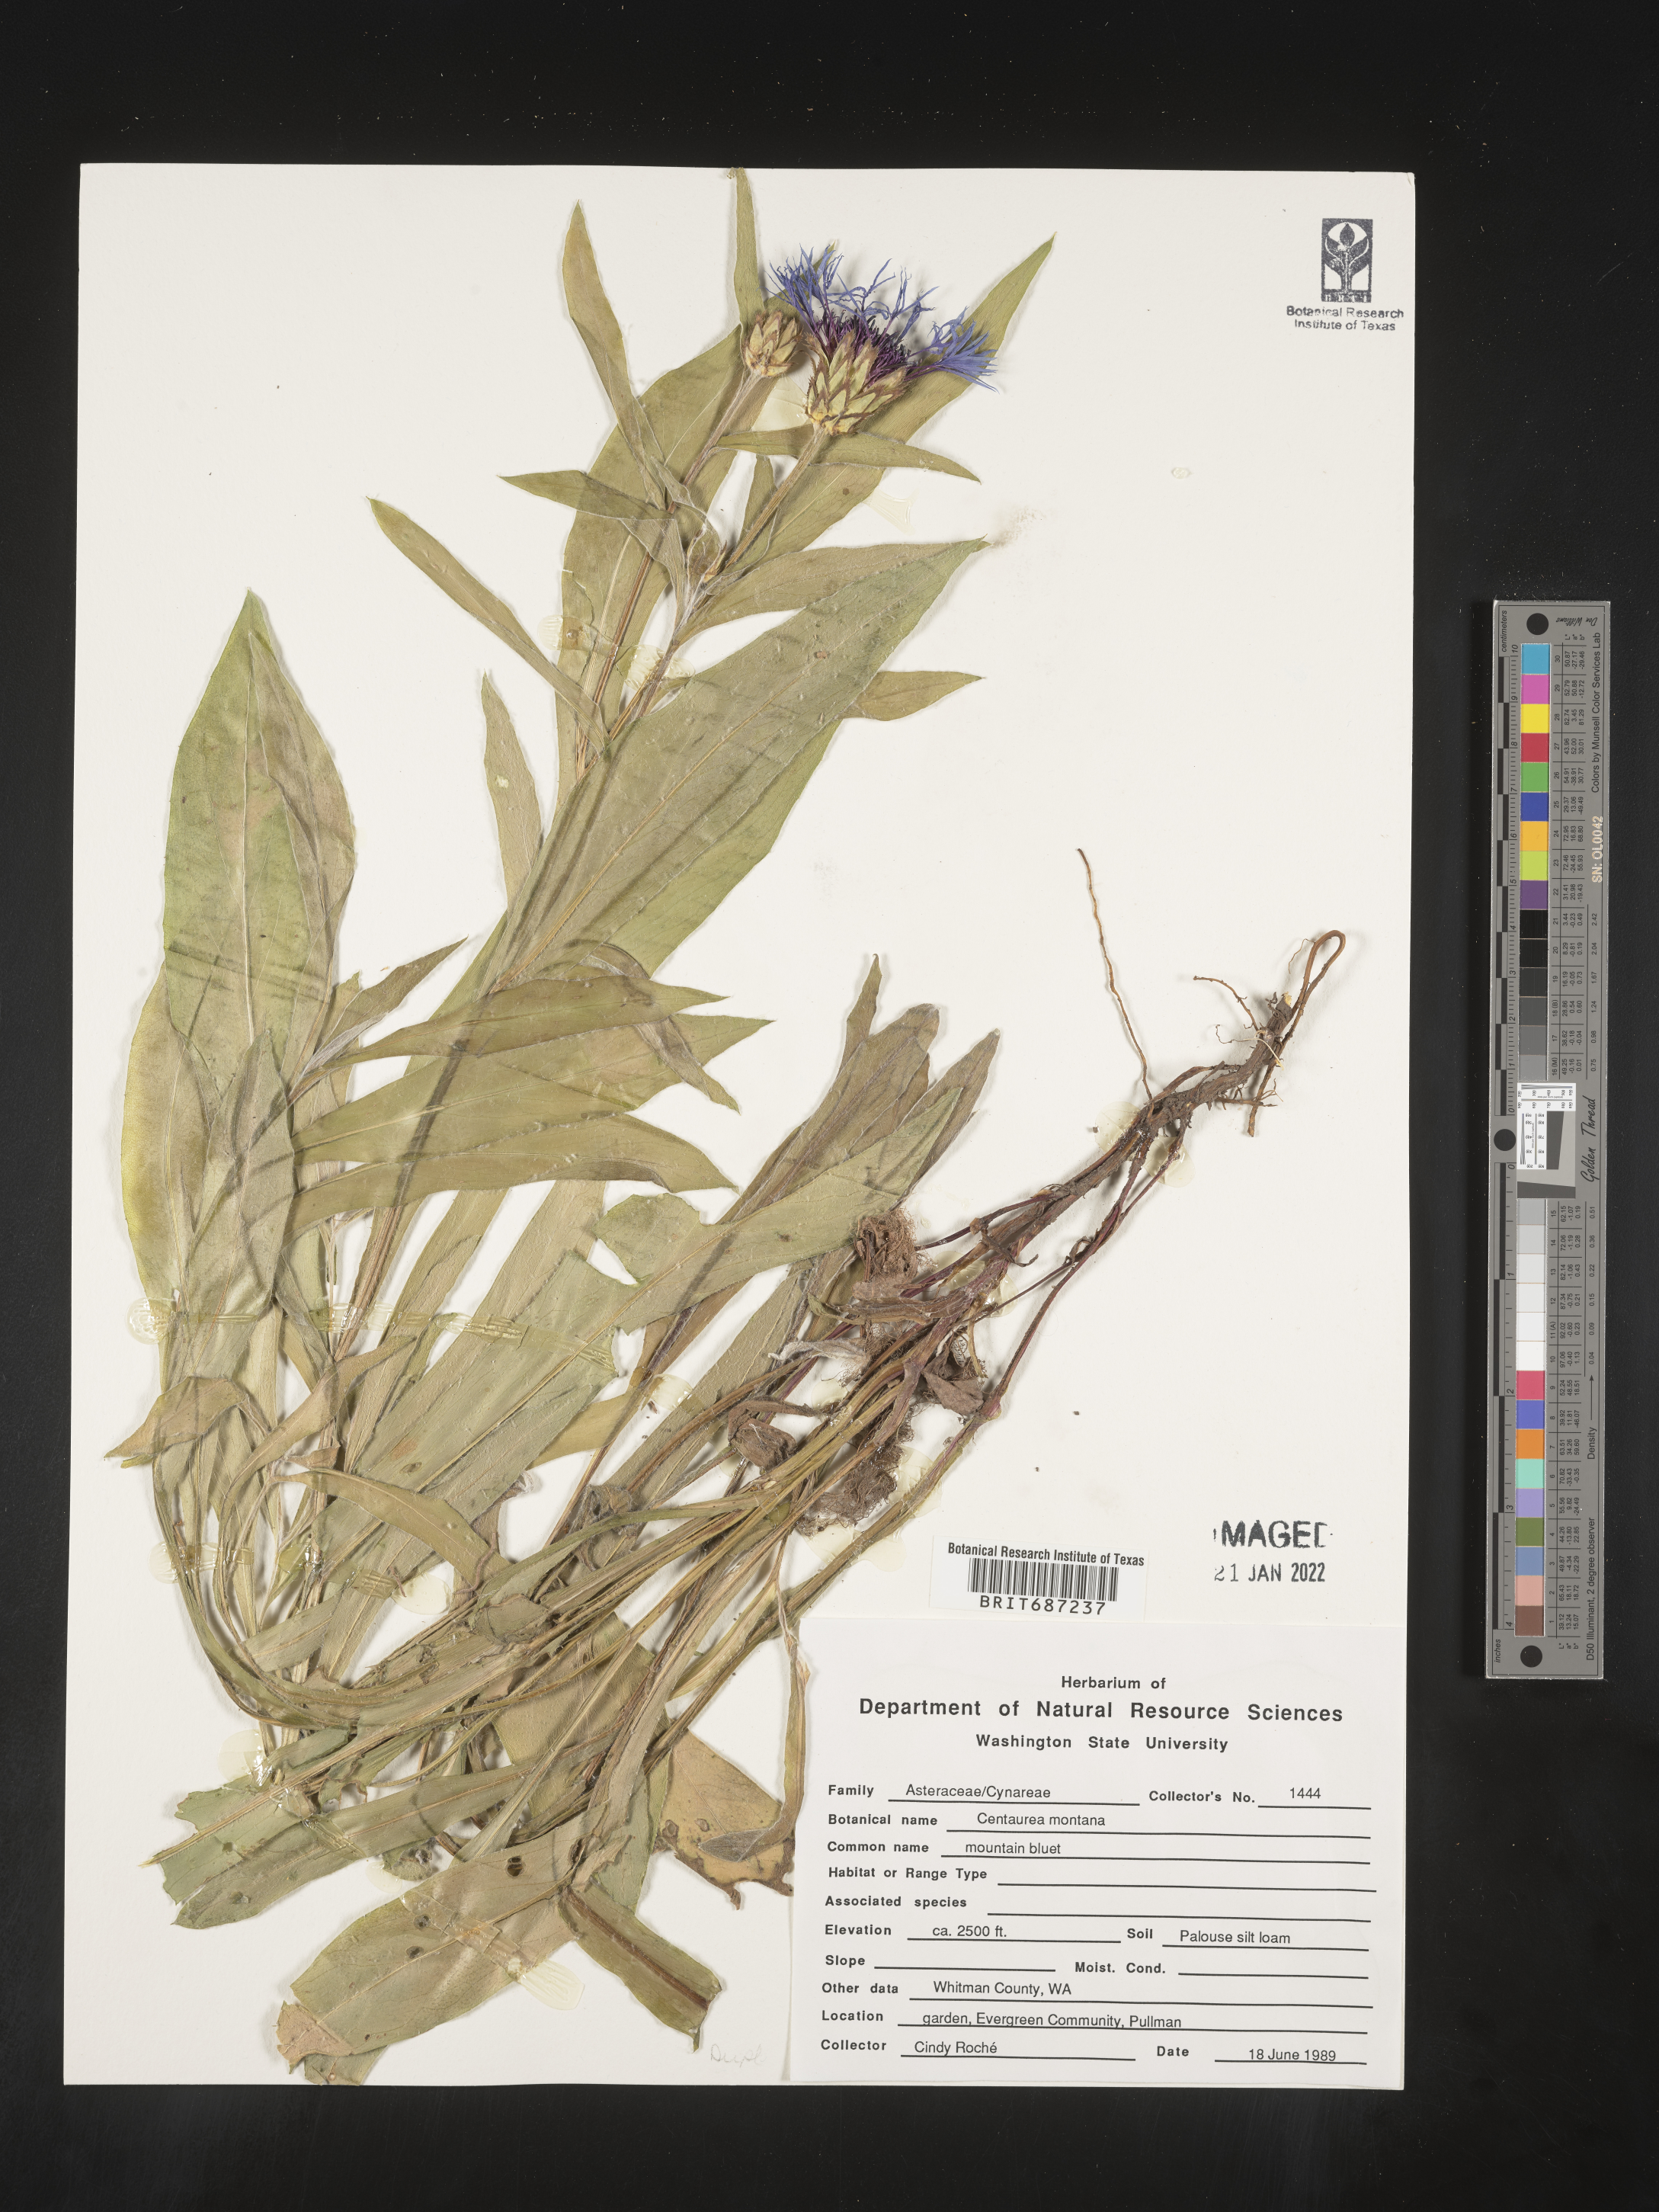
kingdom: Plantae
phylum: Tracheophyta
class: Magnoliopsida
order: Asterales
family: Asteraceae
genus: Centaurea
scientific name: Centaurea montana
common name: Perennial cornflower
